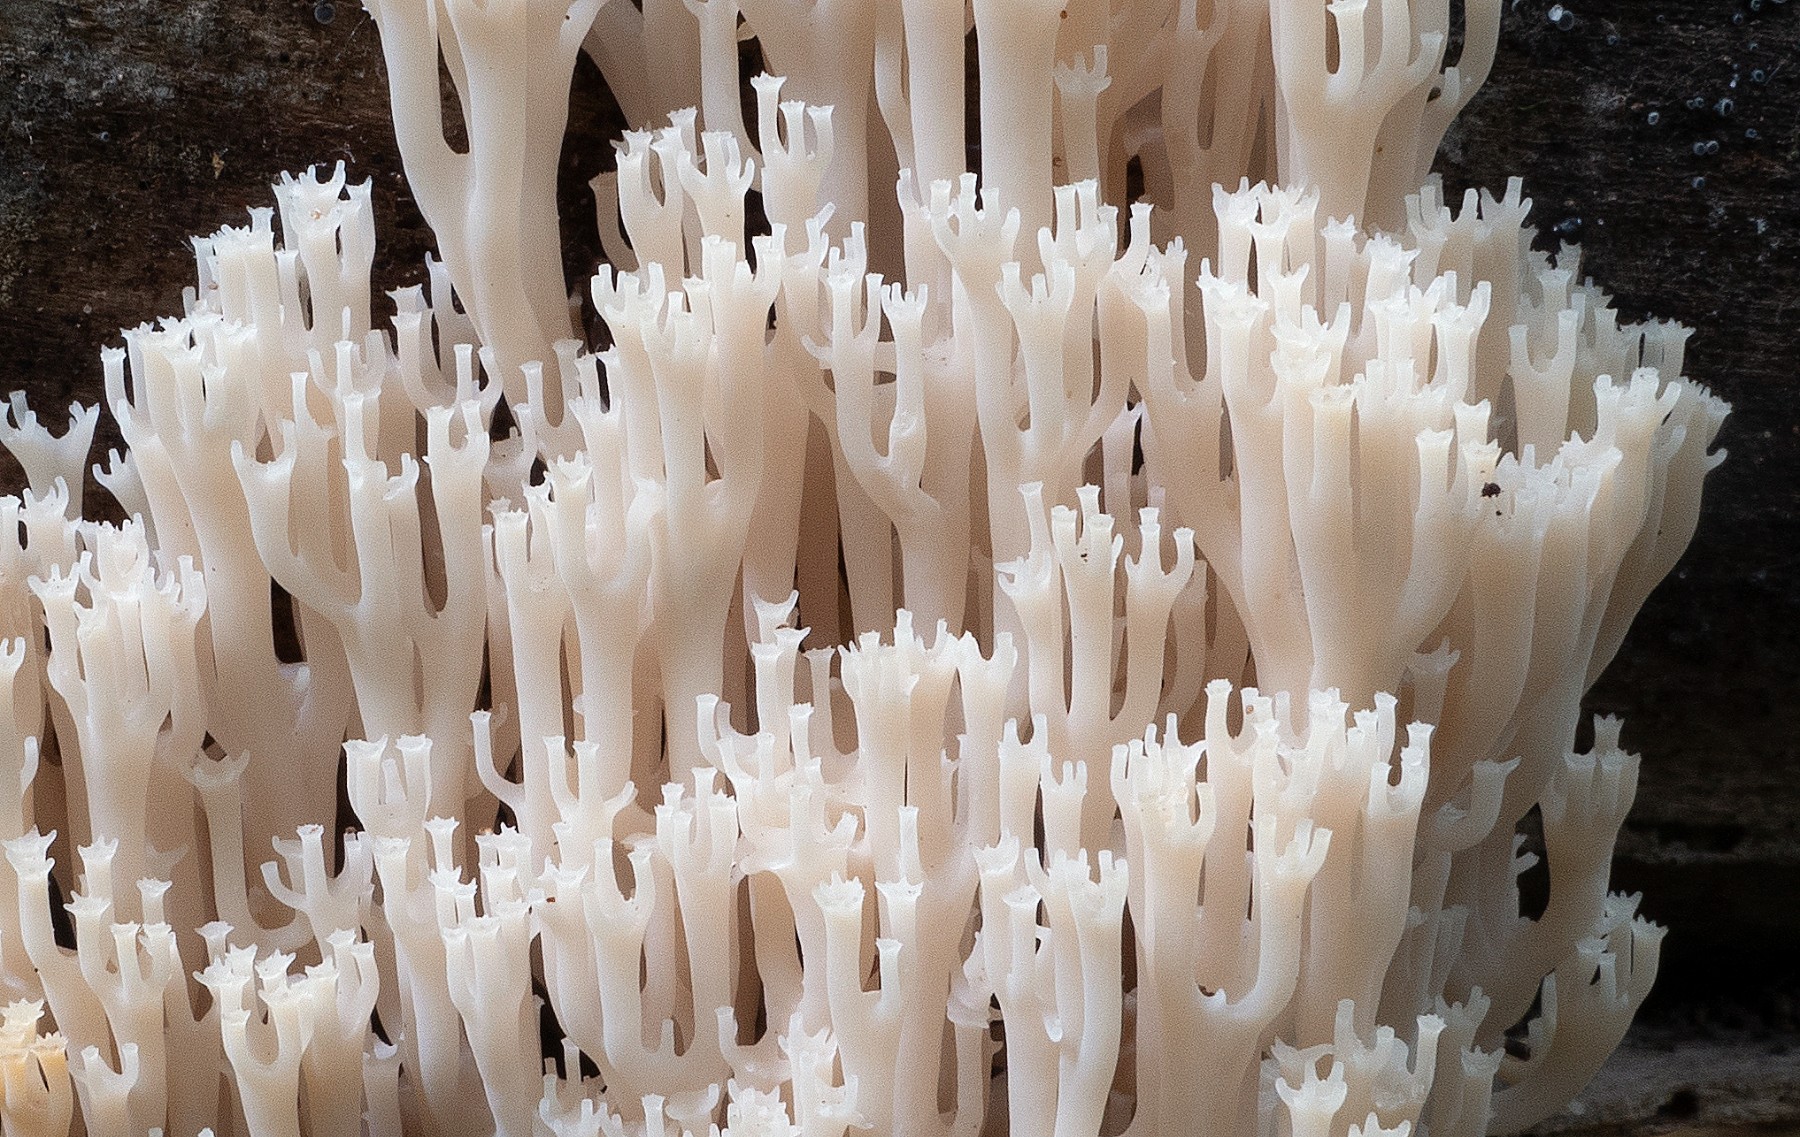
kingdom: Fungi
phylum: Basidiomycota
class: Agaricomycetes
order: Russulales
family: Auriscalpiaceae
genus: Artomyces
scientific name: Artomyces pyxidatus
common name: kandelabersvamp
